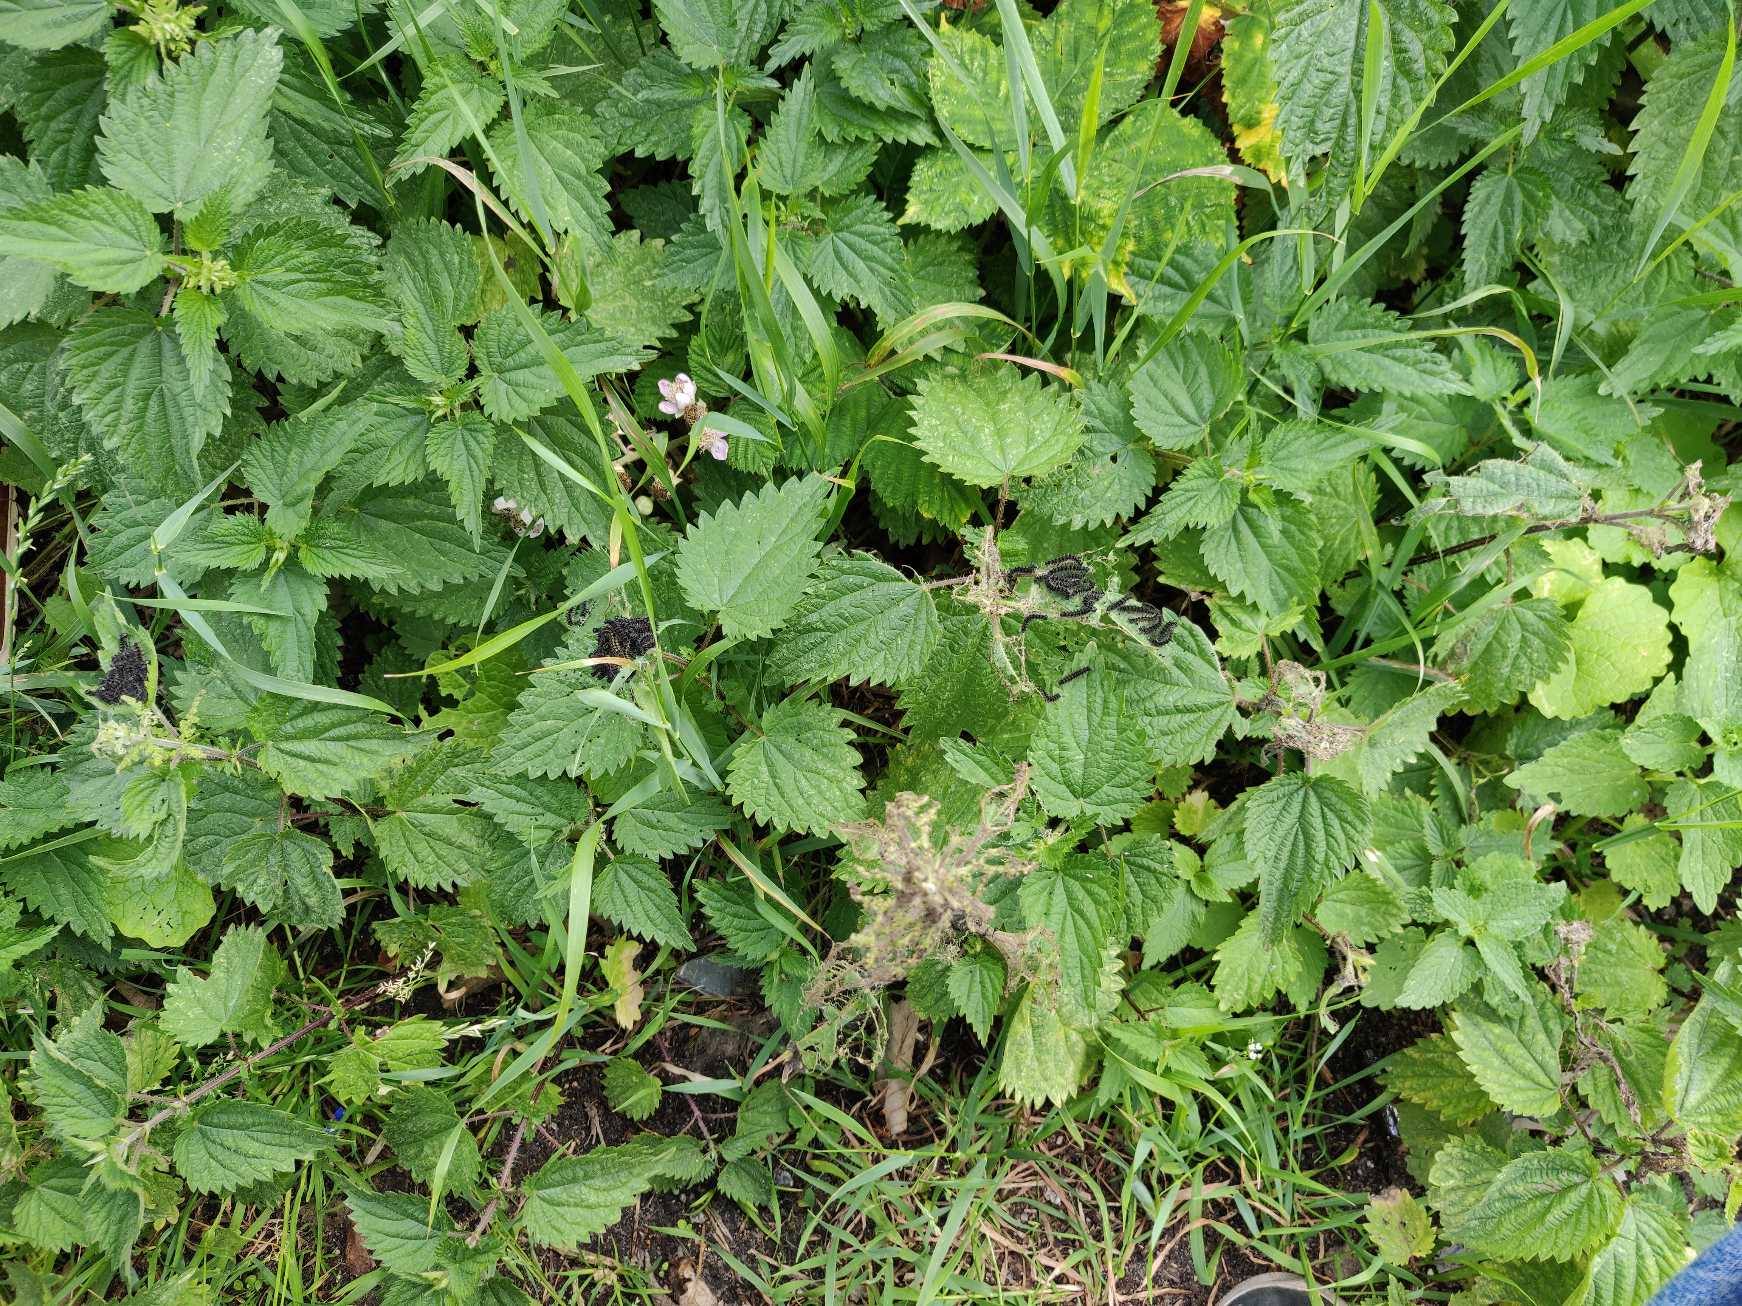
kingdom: Animalia
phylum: Arthropoda
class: Insecta
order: Lepidoptera
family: Nymphalidae
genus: Aglais
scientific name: Aglais urticae
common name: Nældens takvinge
